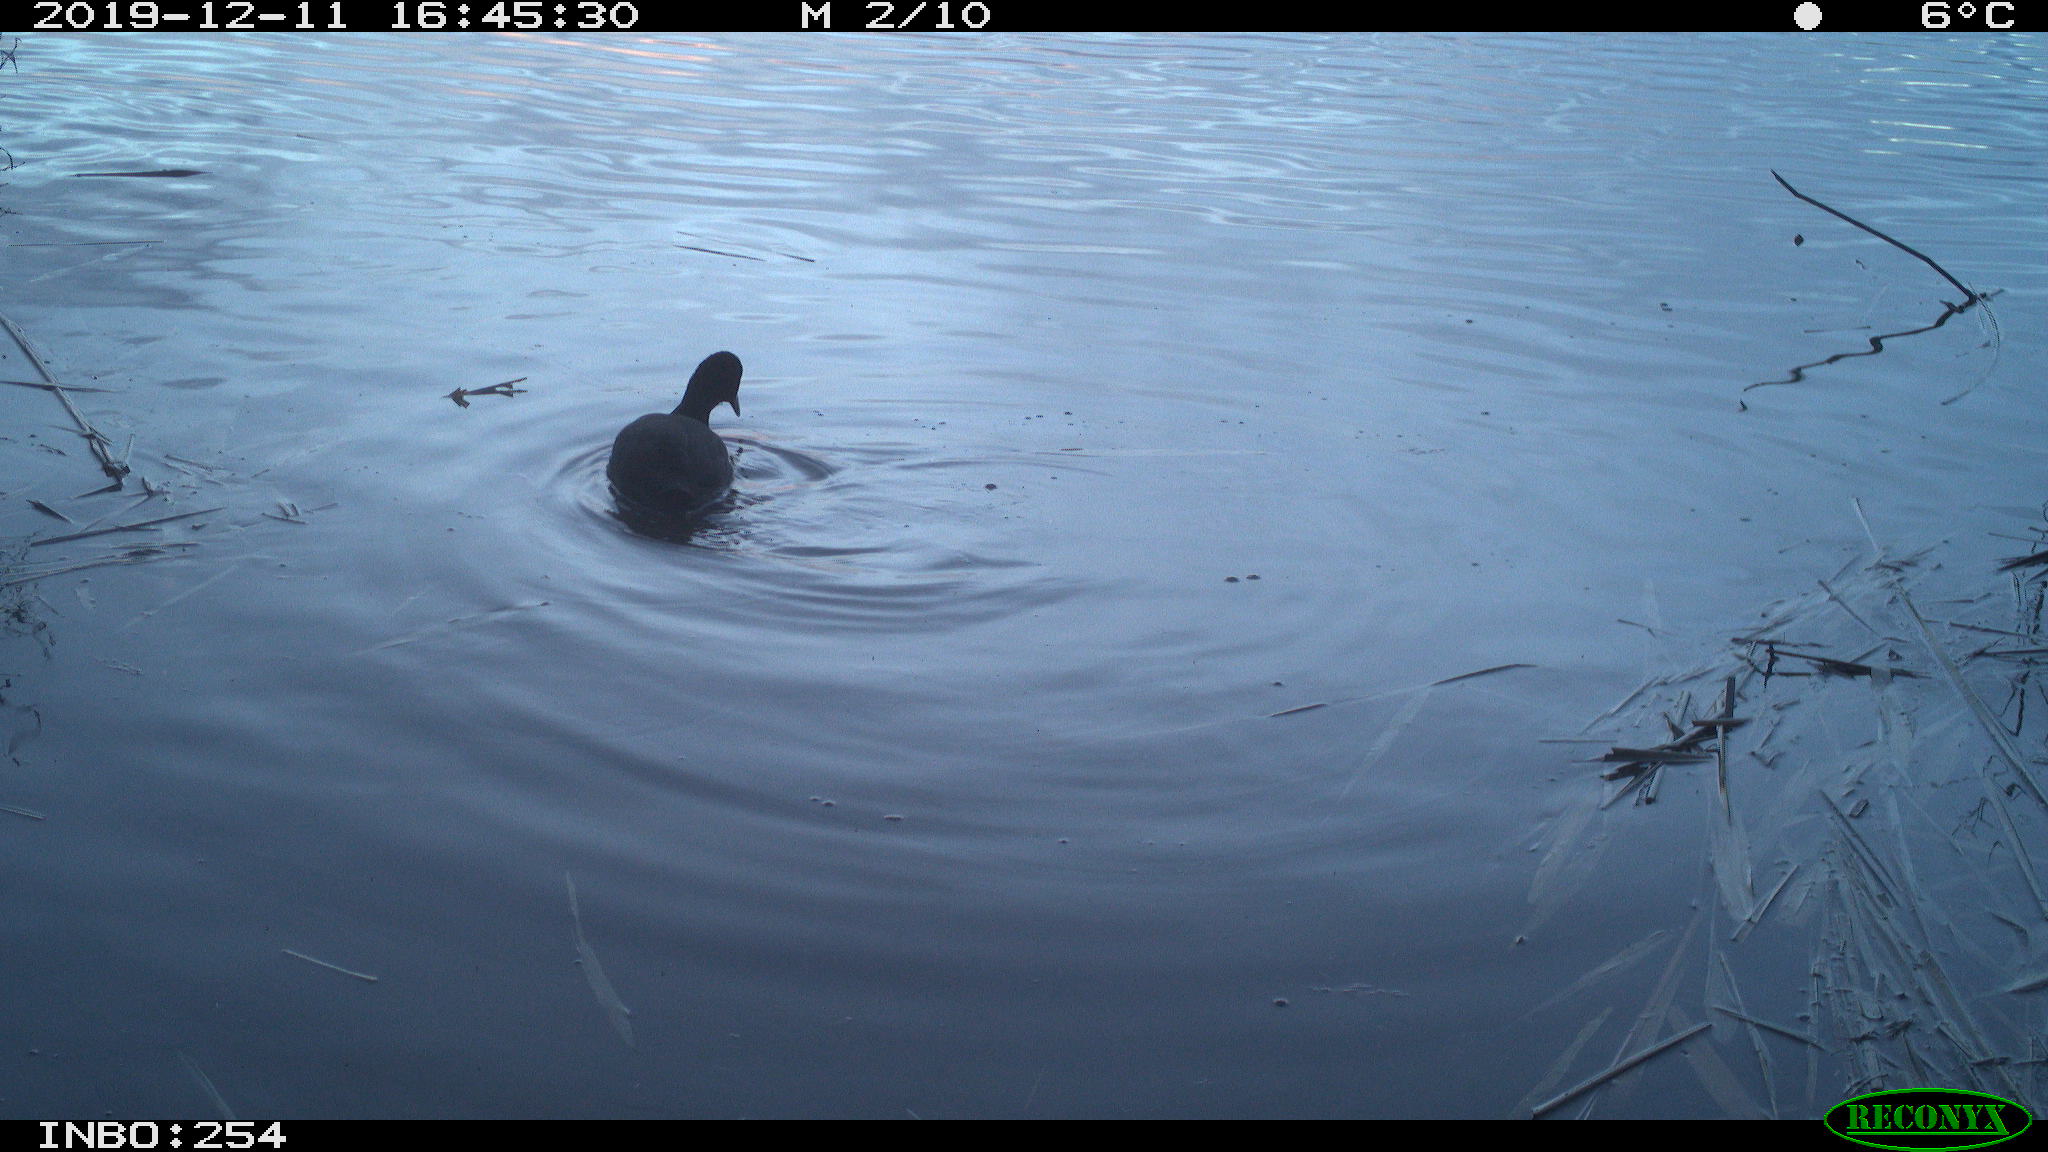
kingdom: Animalia
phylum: Chordata
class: Aves
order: Gruiformes
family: Rallidae
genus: Gallinula
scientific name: Gallinula chloropus
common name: Common moorhen
